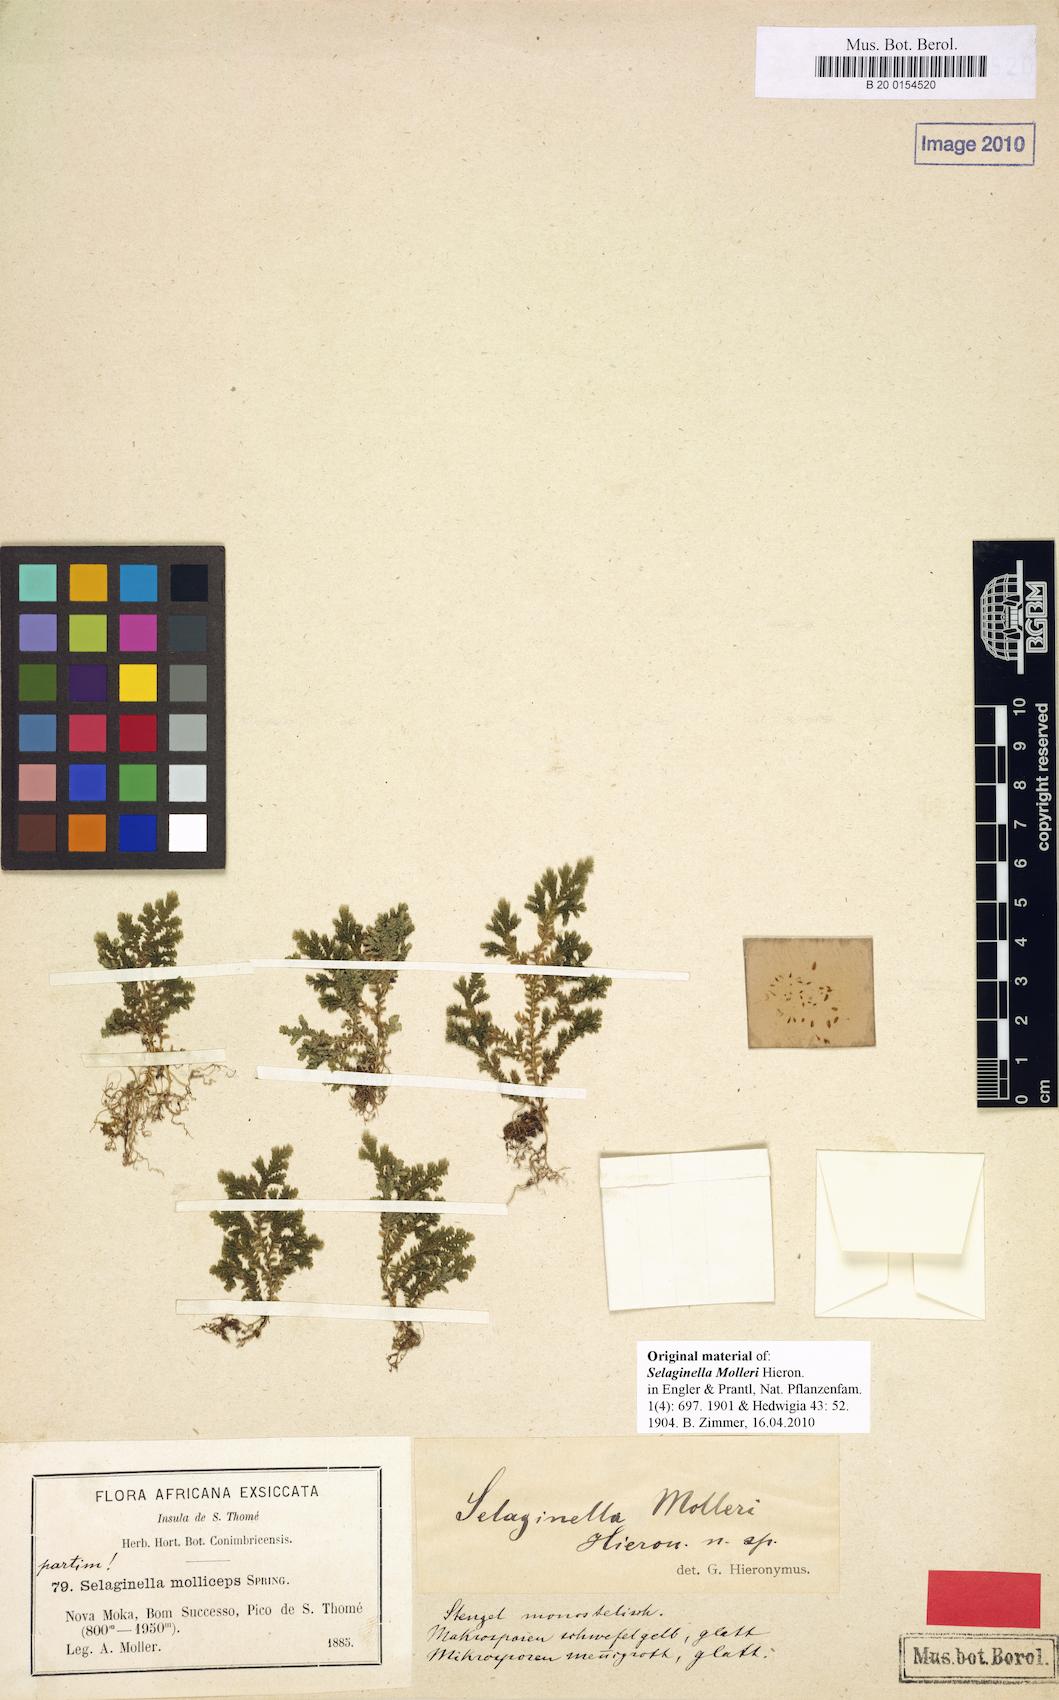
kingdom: Plantae
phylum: Tracheophyta
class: Lycopodiopsida
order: Selaginellales
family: Selaginellaceae
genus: Selaginella
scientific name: Selaginella molleri
